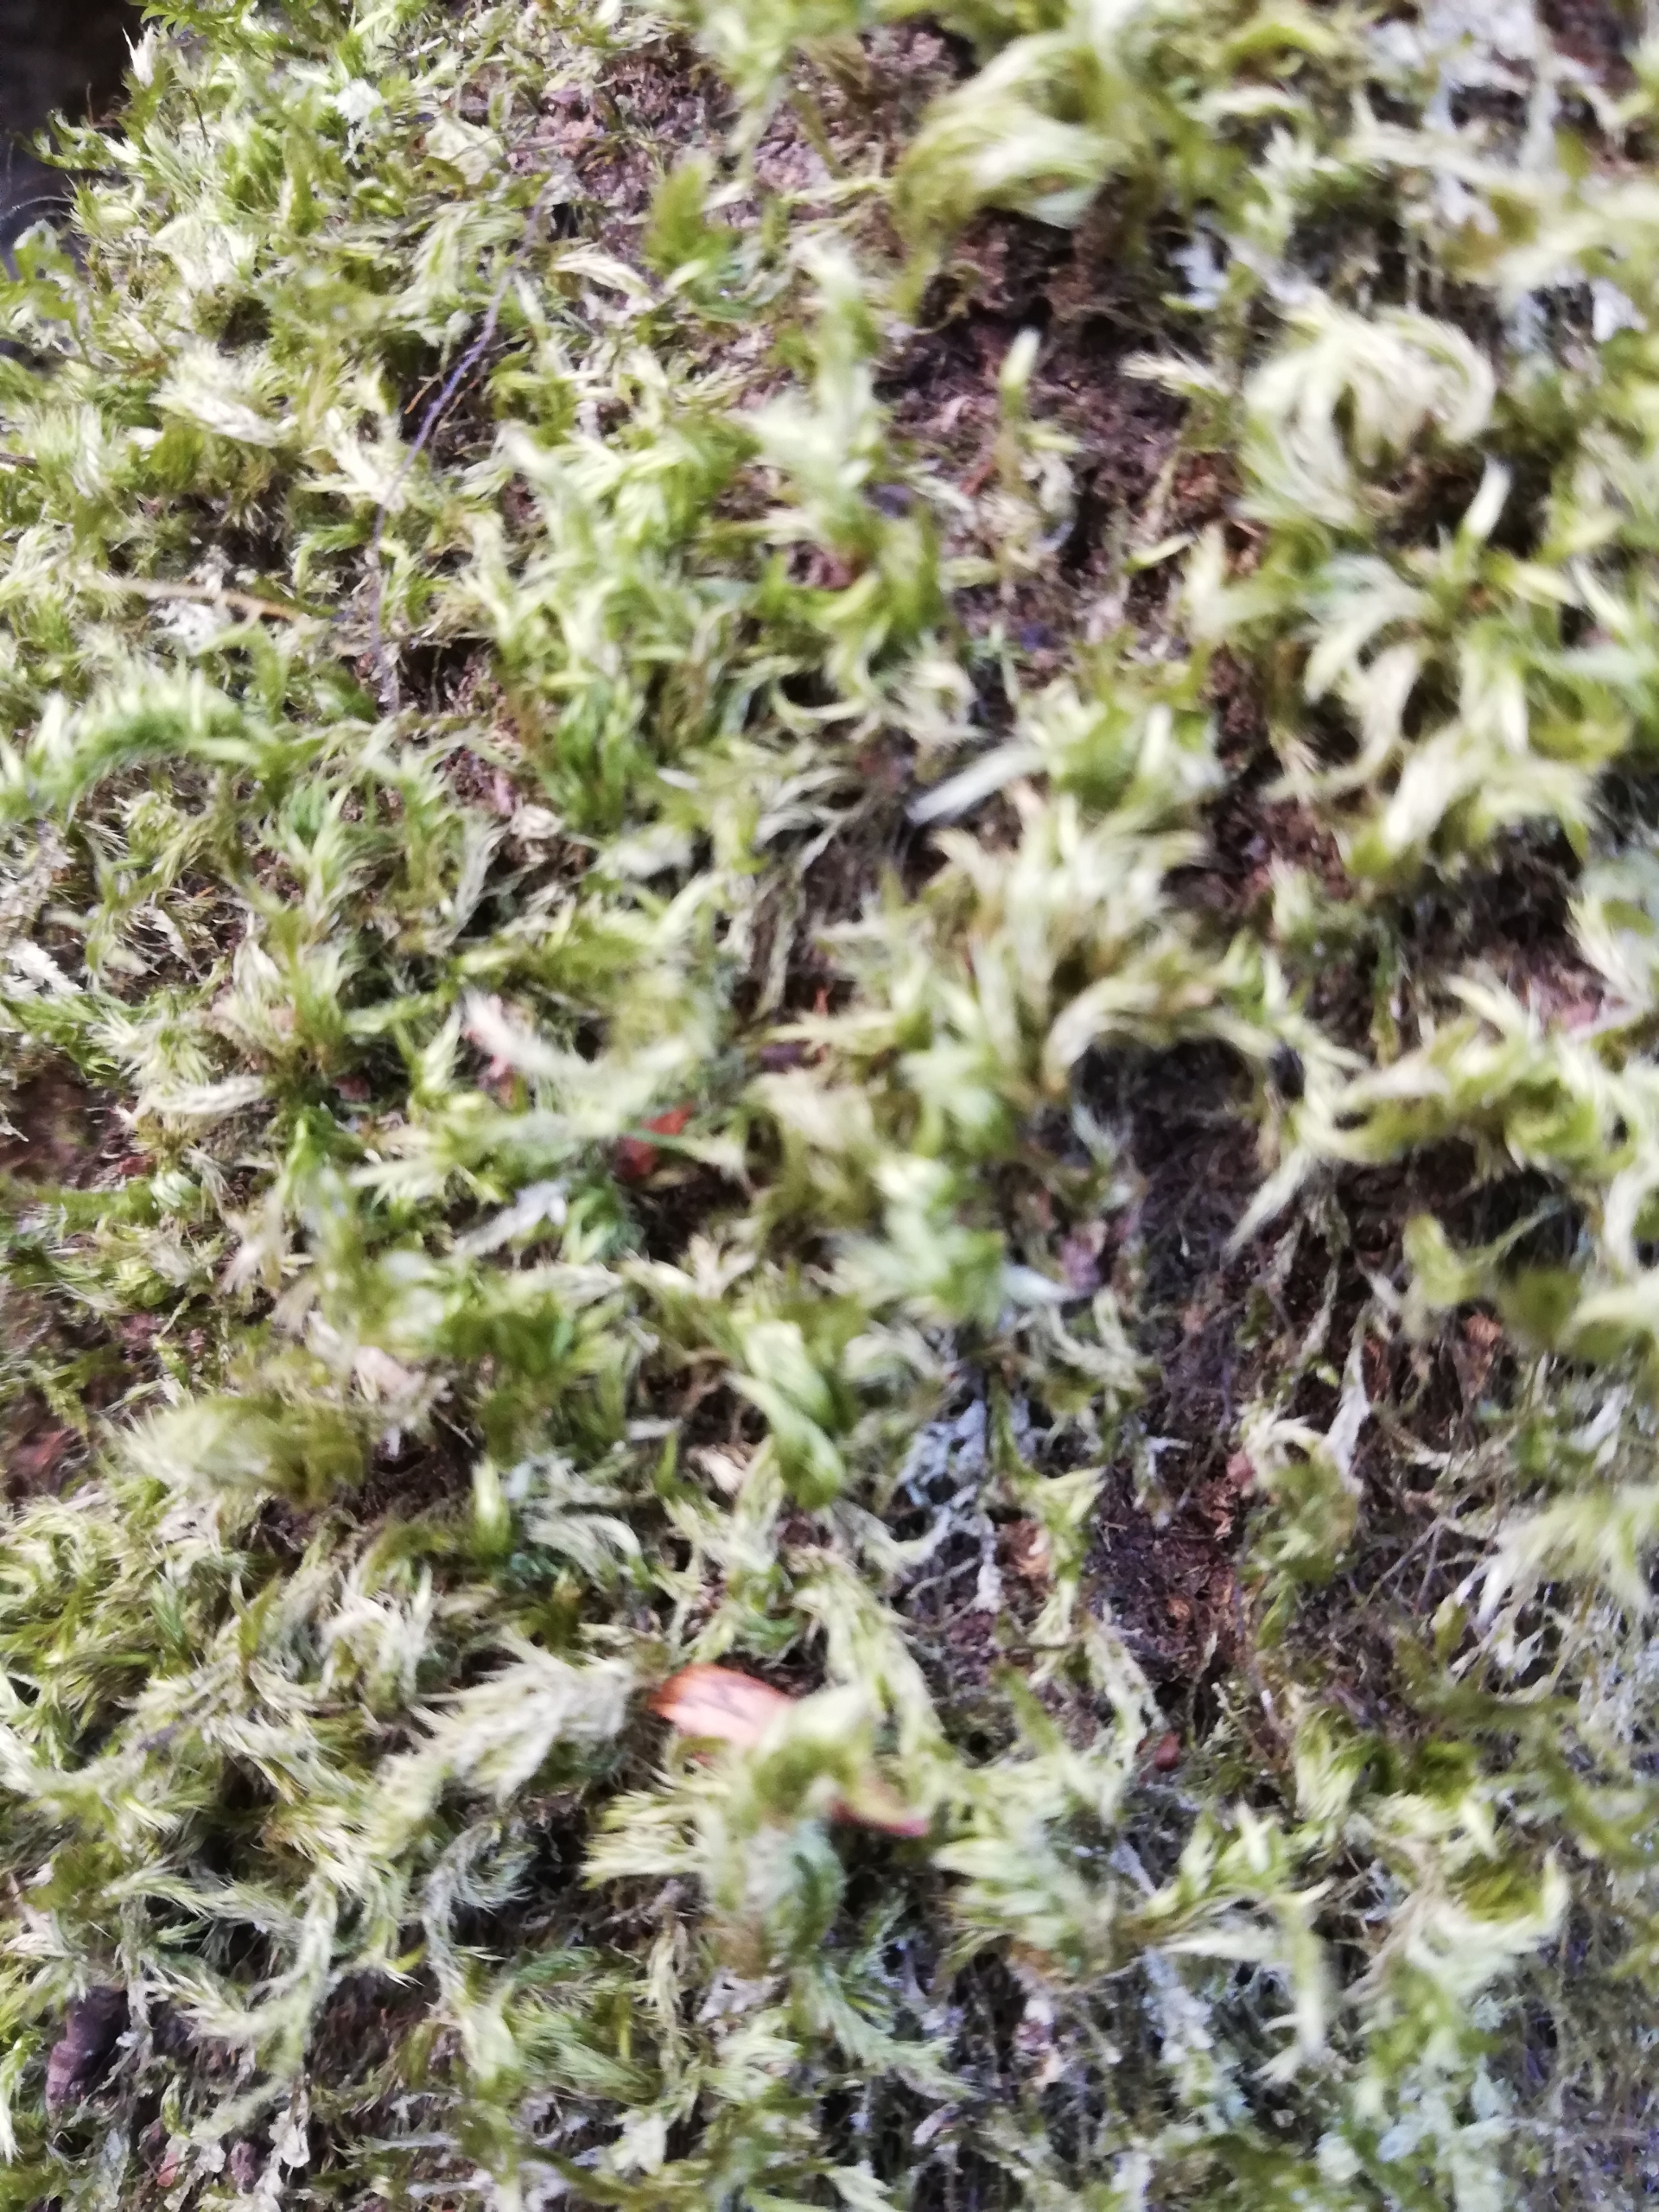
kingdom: Plantae
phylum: Bryophyta
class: Bryopsida
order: Hypnales
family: Brachytheciaceae
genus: Homalothecium
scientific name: Homalothecium sericeum
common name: Krybende silkemos
